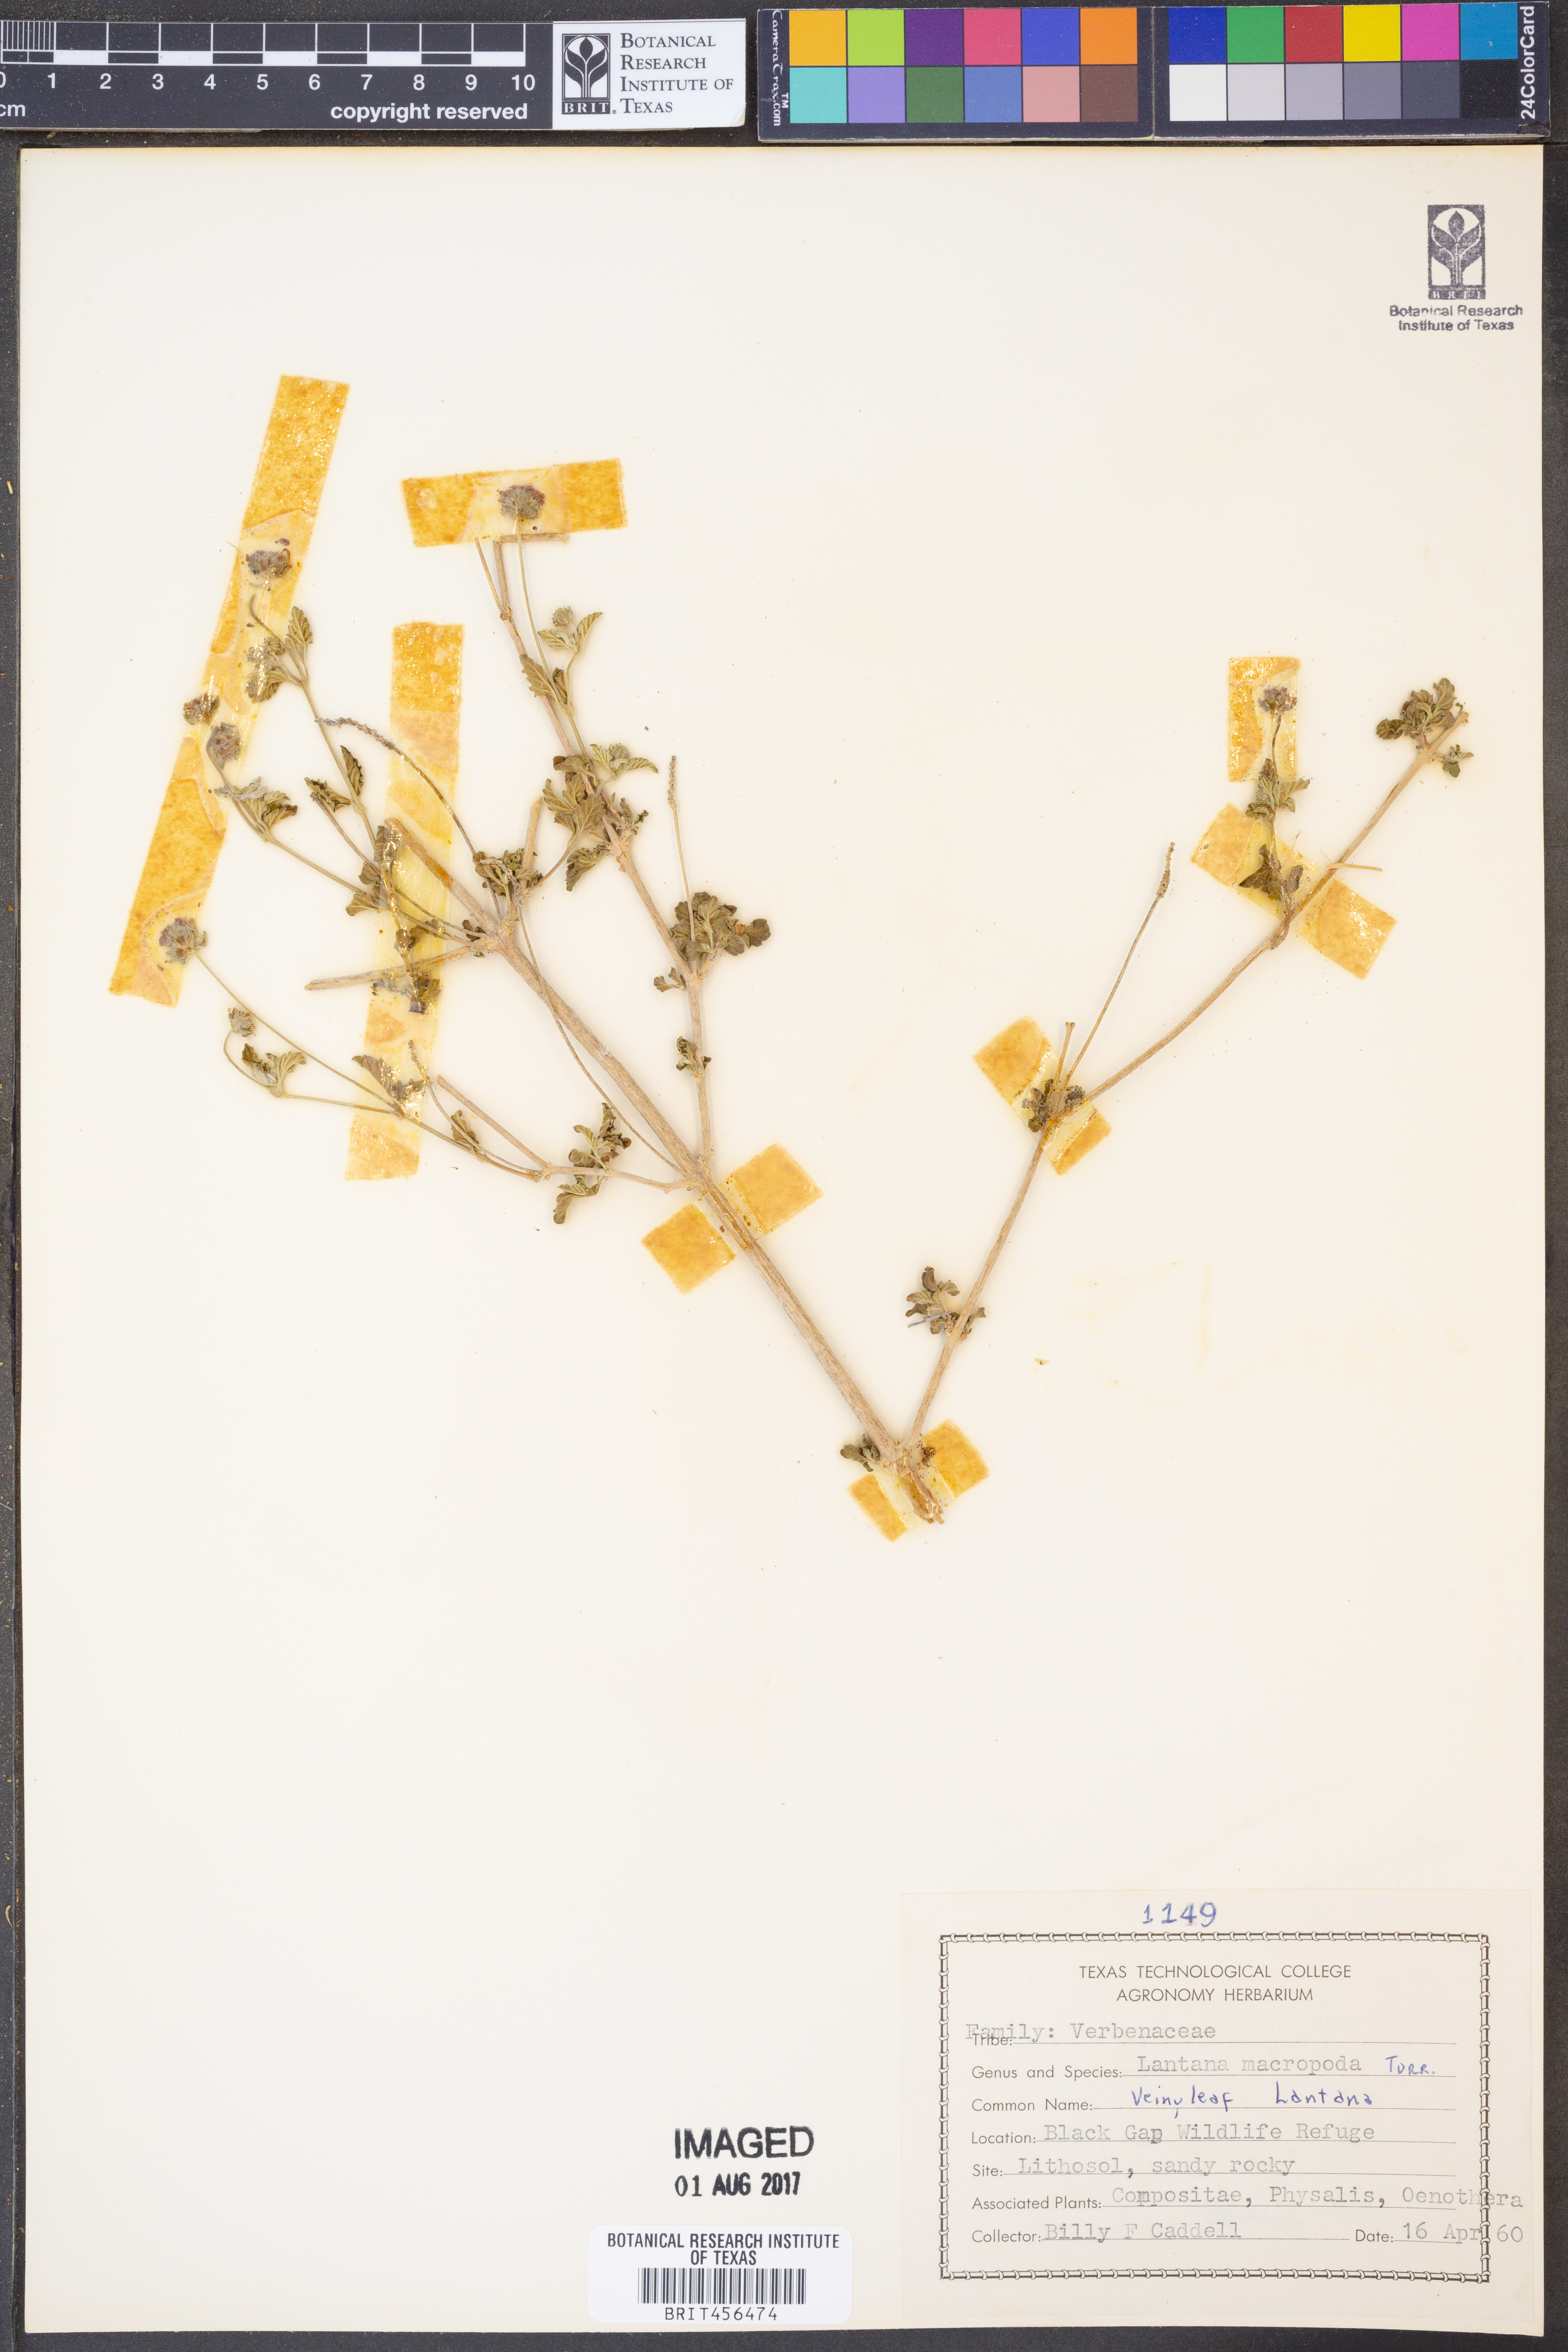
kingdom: Plantae
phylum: Tracheophyta
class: Magnoliopsida
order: Lamiales
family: Verbenaceae
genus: Lantana
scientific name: Lantana achyranthifolia
